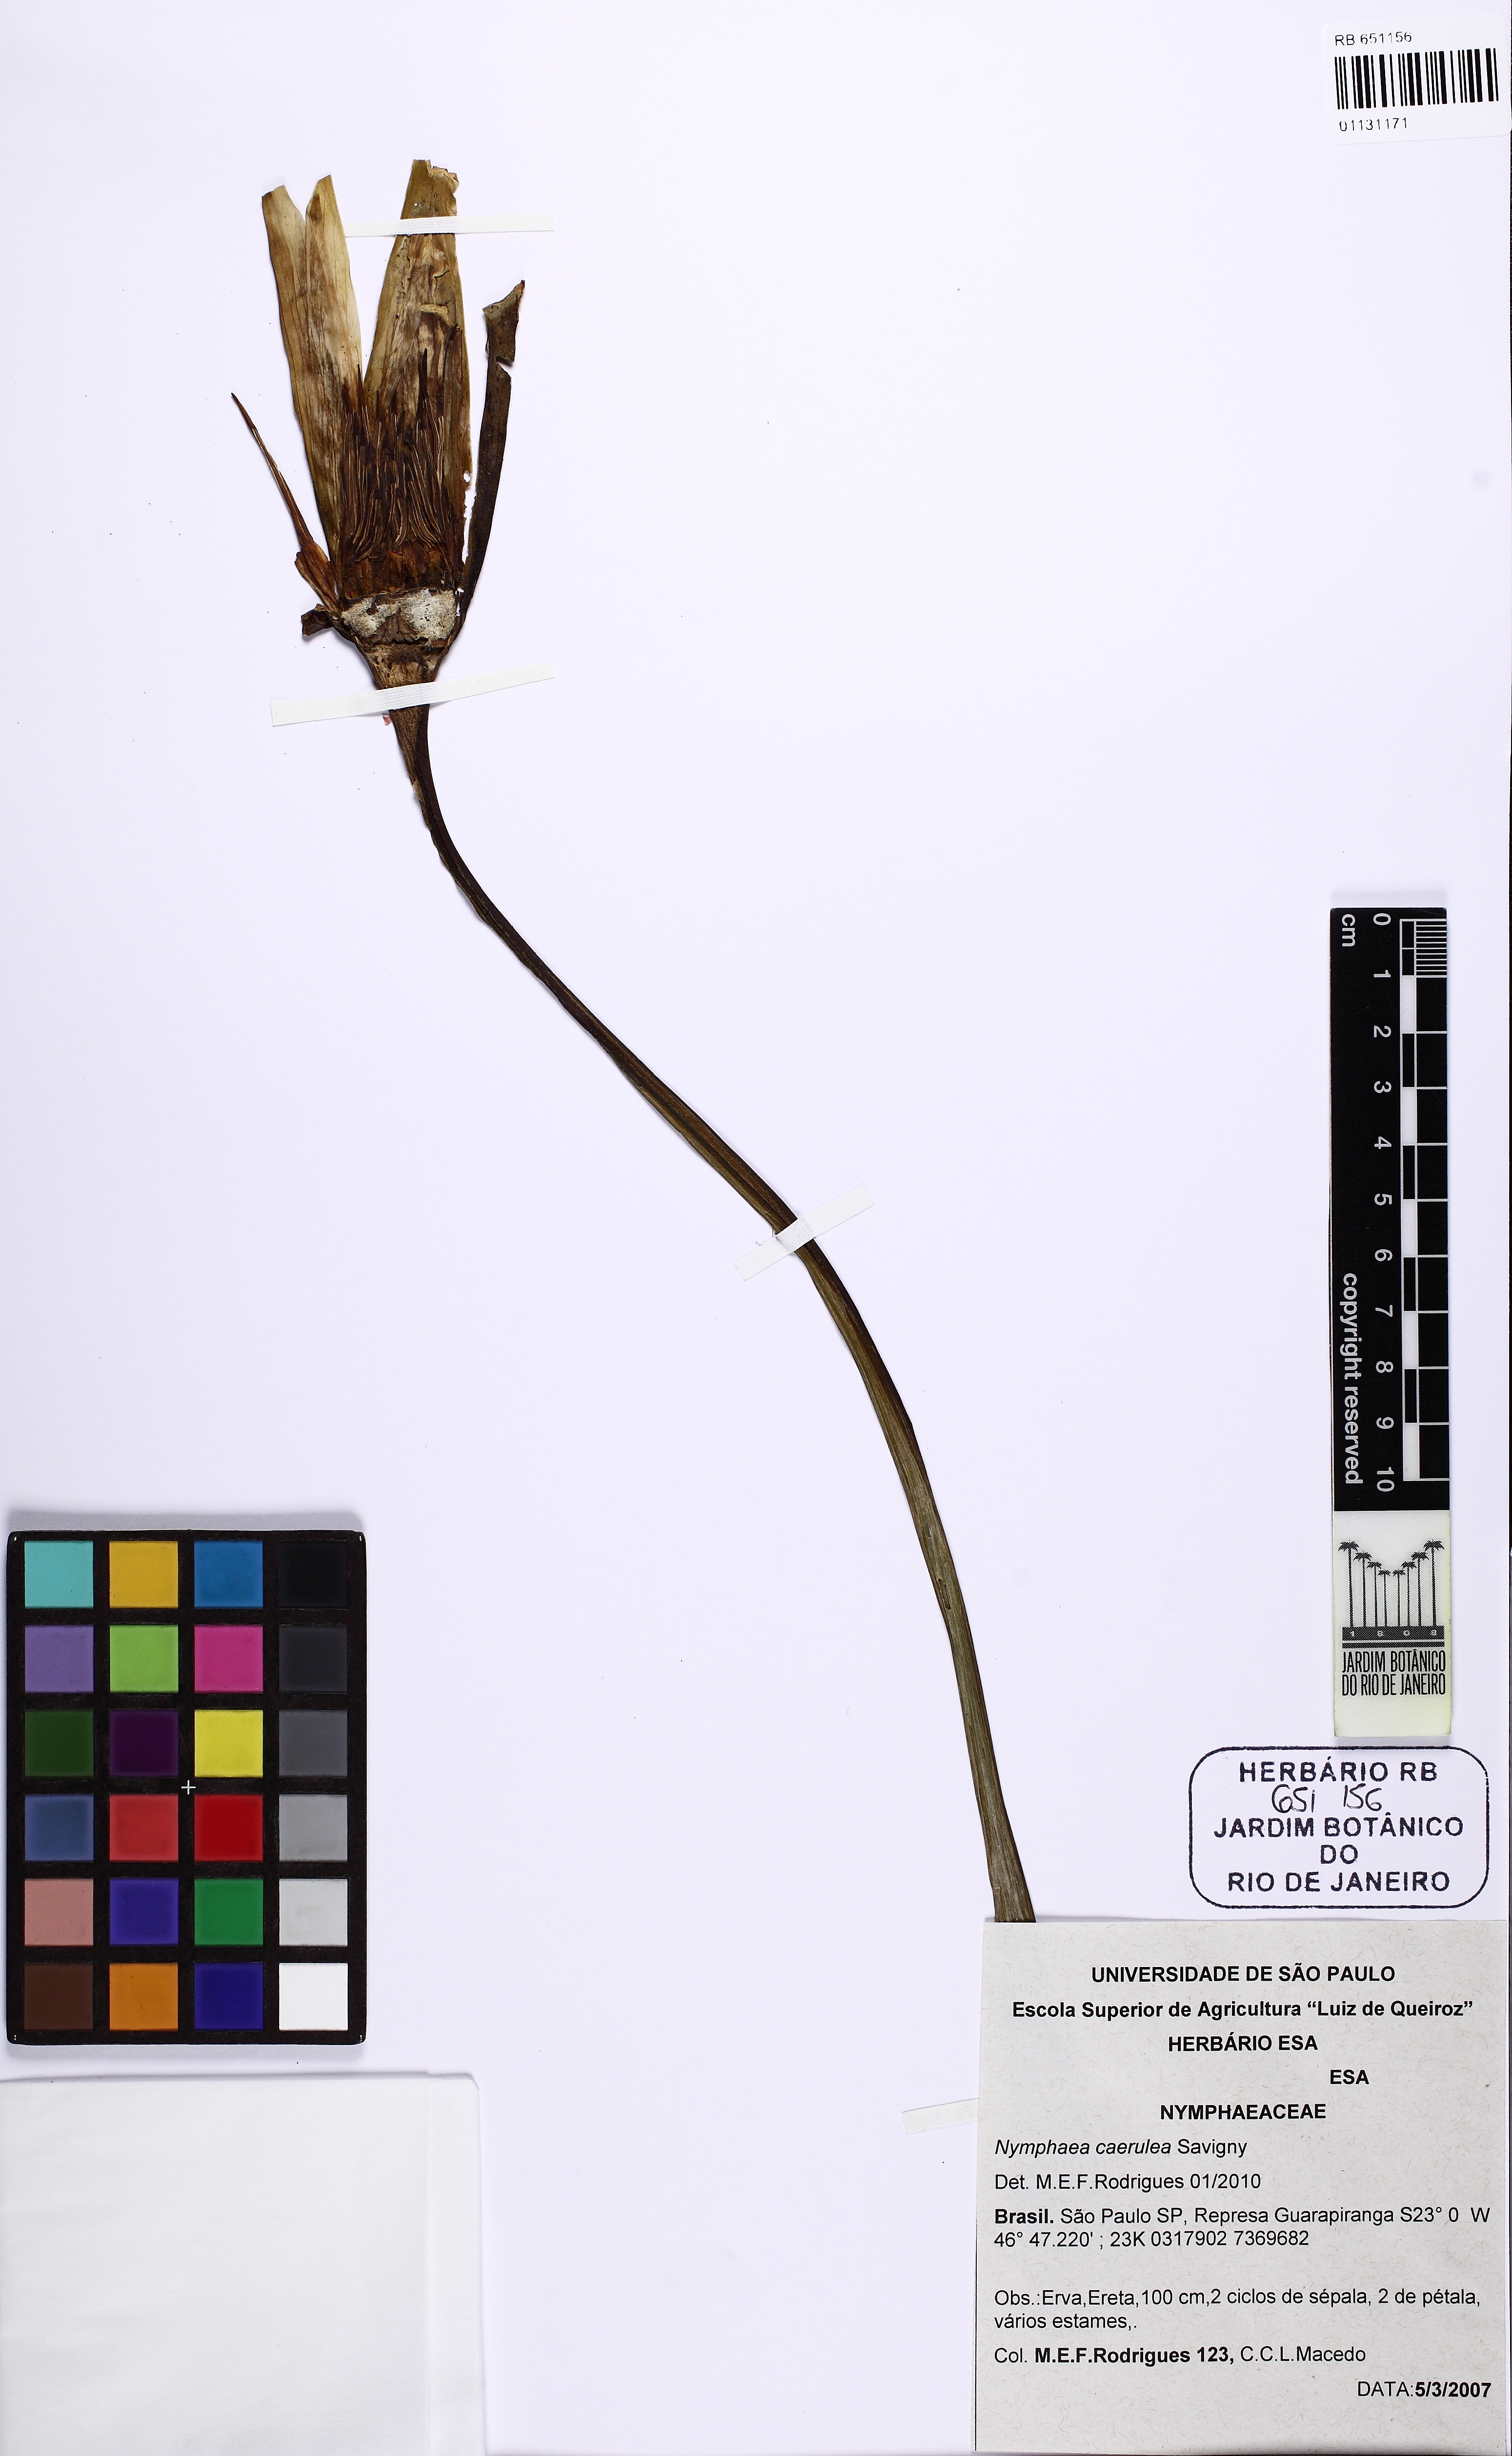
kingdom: Plantae
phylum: Tracheophyta
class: Magnoliopsida
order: Nymphaeales
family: Nymphaeaceae
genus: Nymphaea
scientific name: Nymphaea
